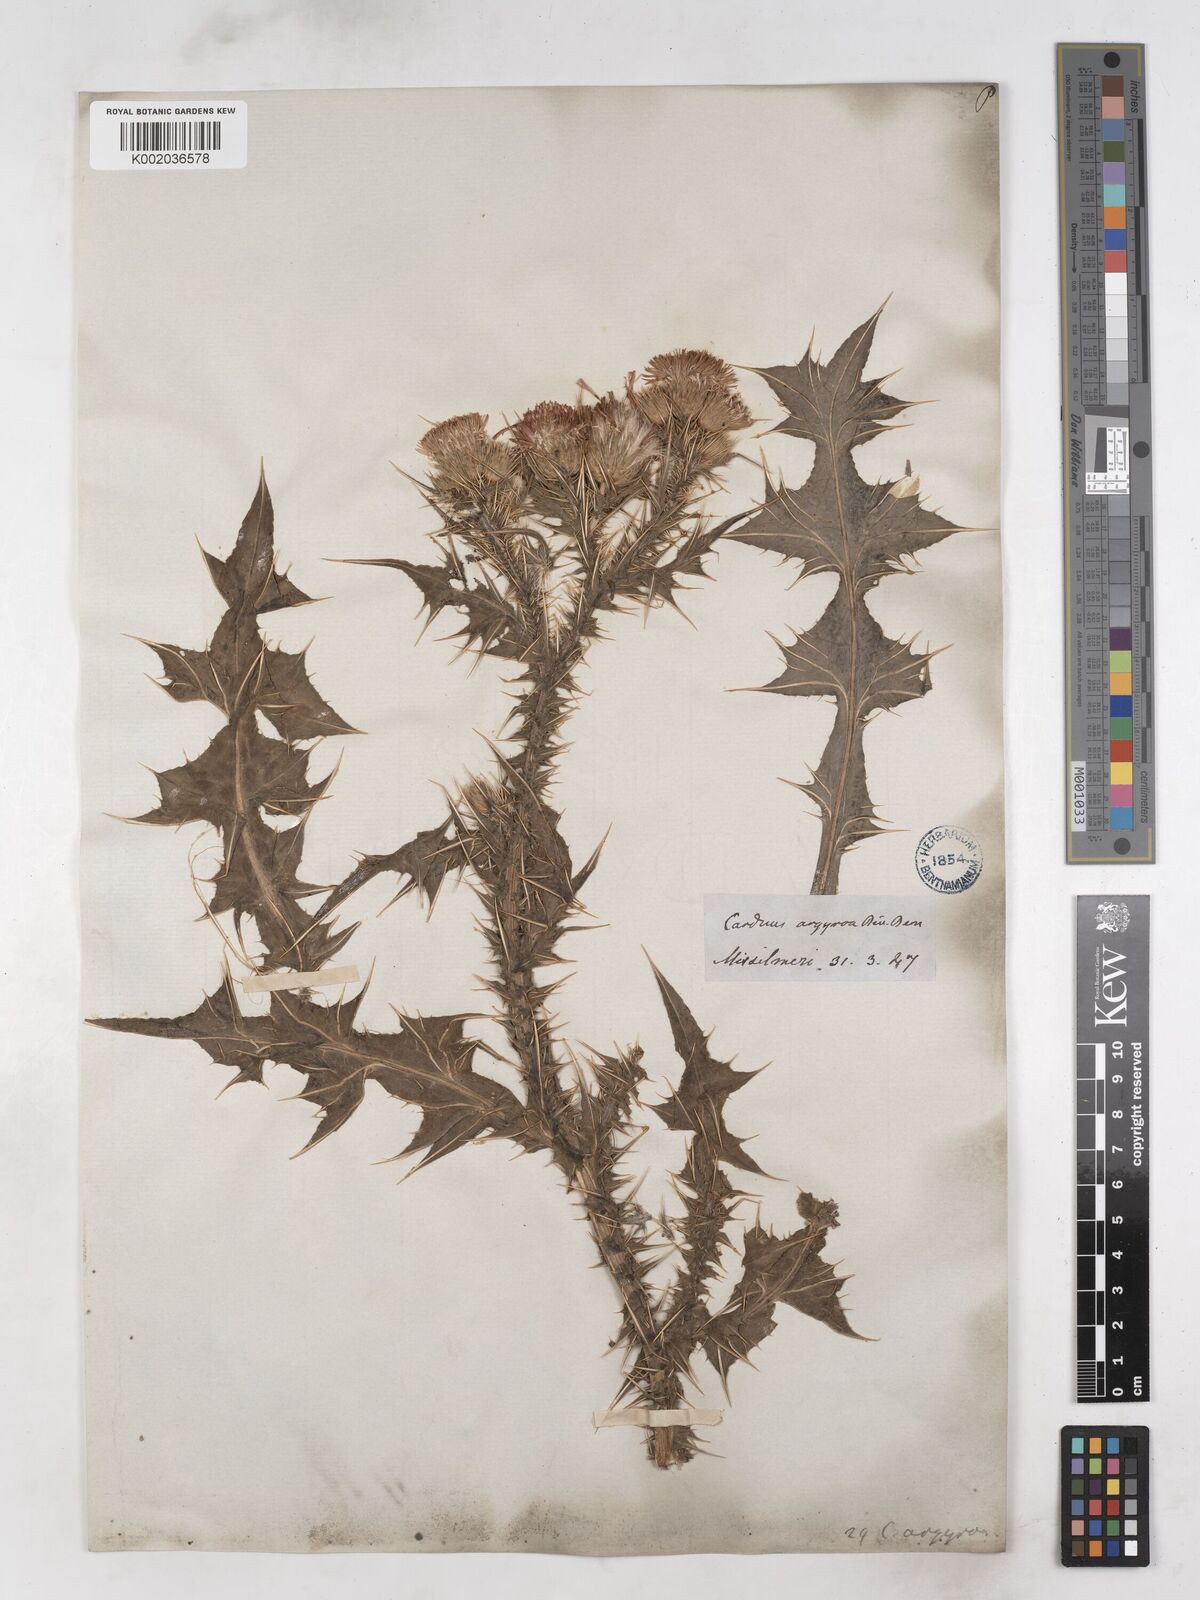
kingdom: Plantae
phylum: Tracheophyta
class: Magnoliopsida
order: Asterales
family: Asteraceae
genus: Carduus
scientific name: Carduus argyroa
